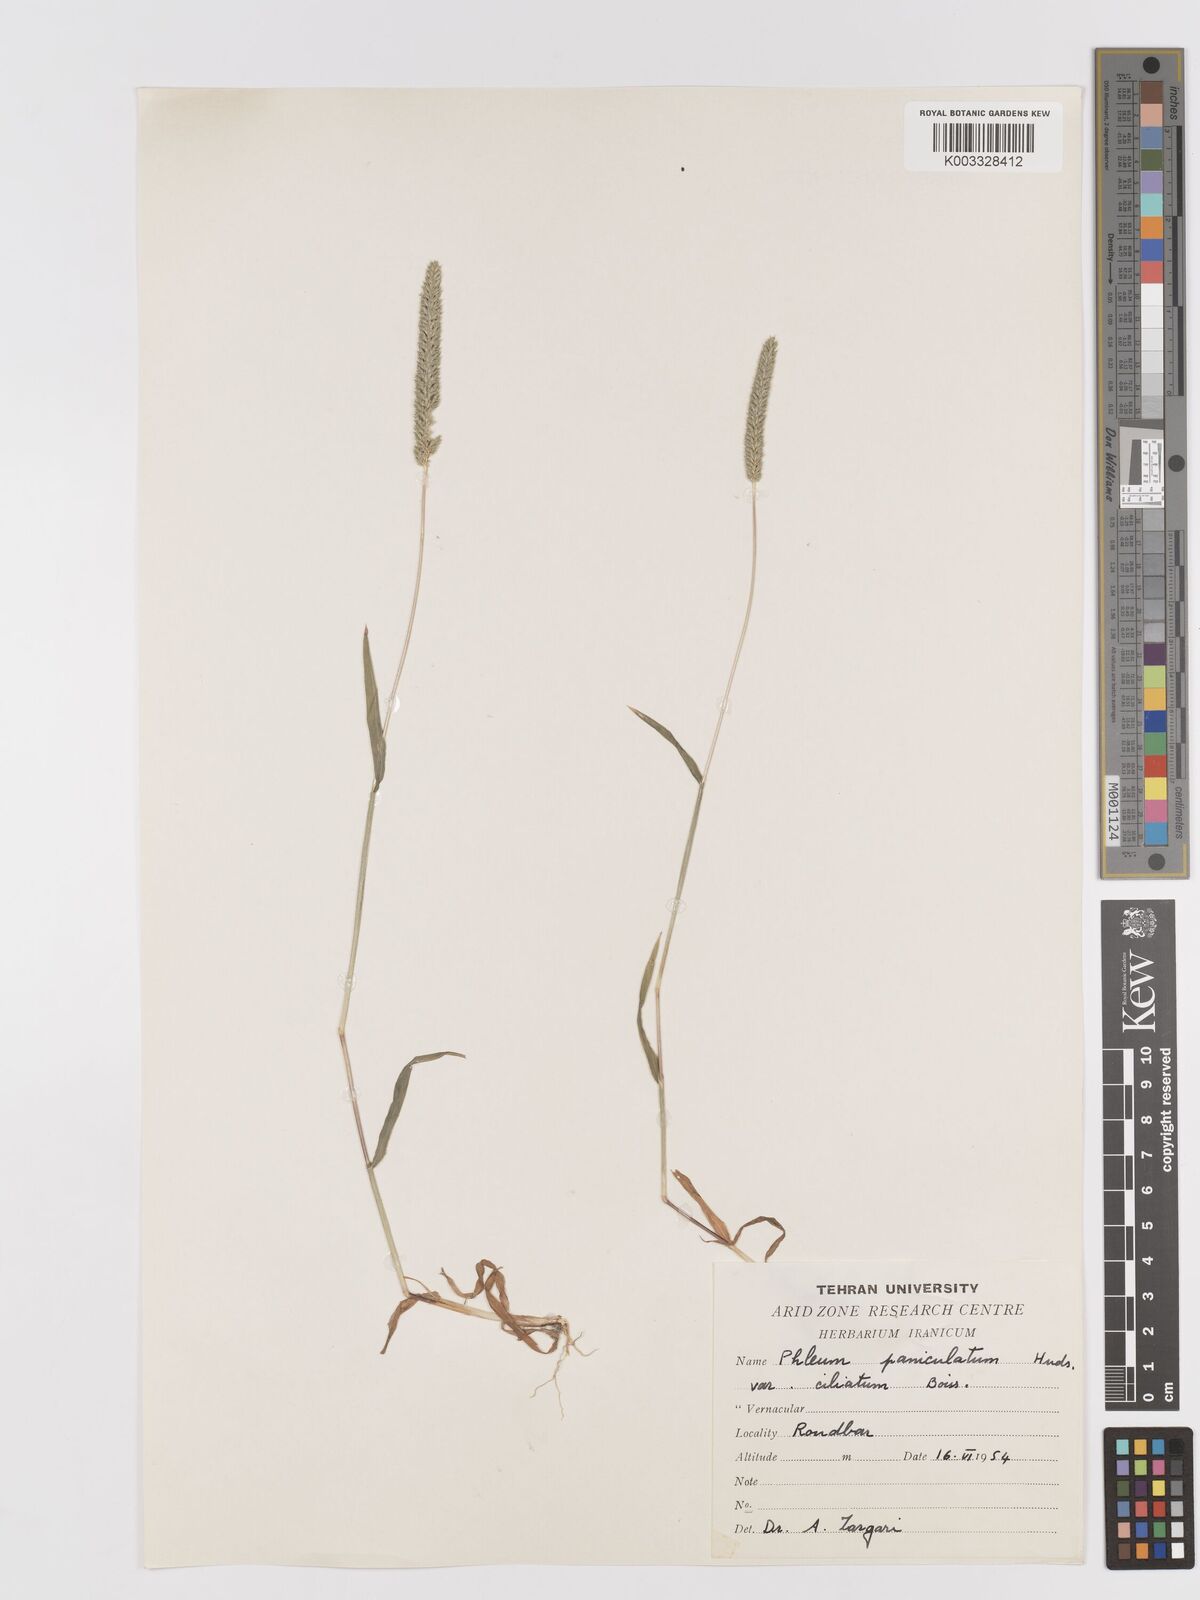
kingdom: Plantae
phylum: Tracheophyta
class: Liliopsida
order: Poales
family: Poaceae
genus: Phleum
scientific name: Phleum paniculatum
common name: British timothy
